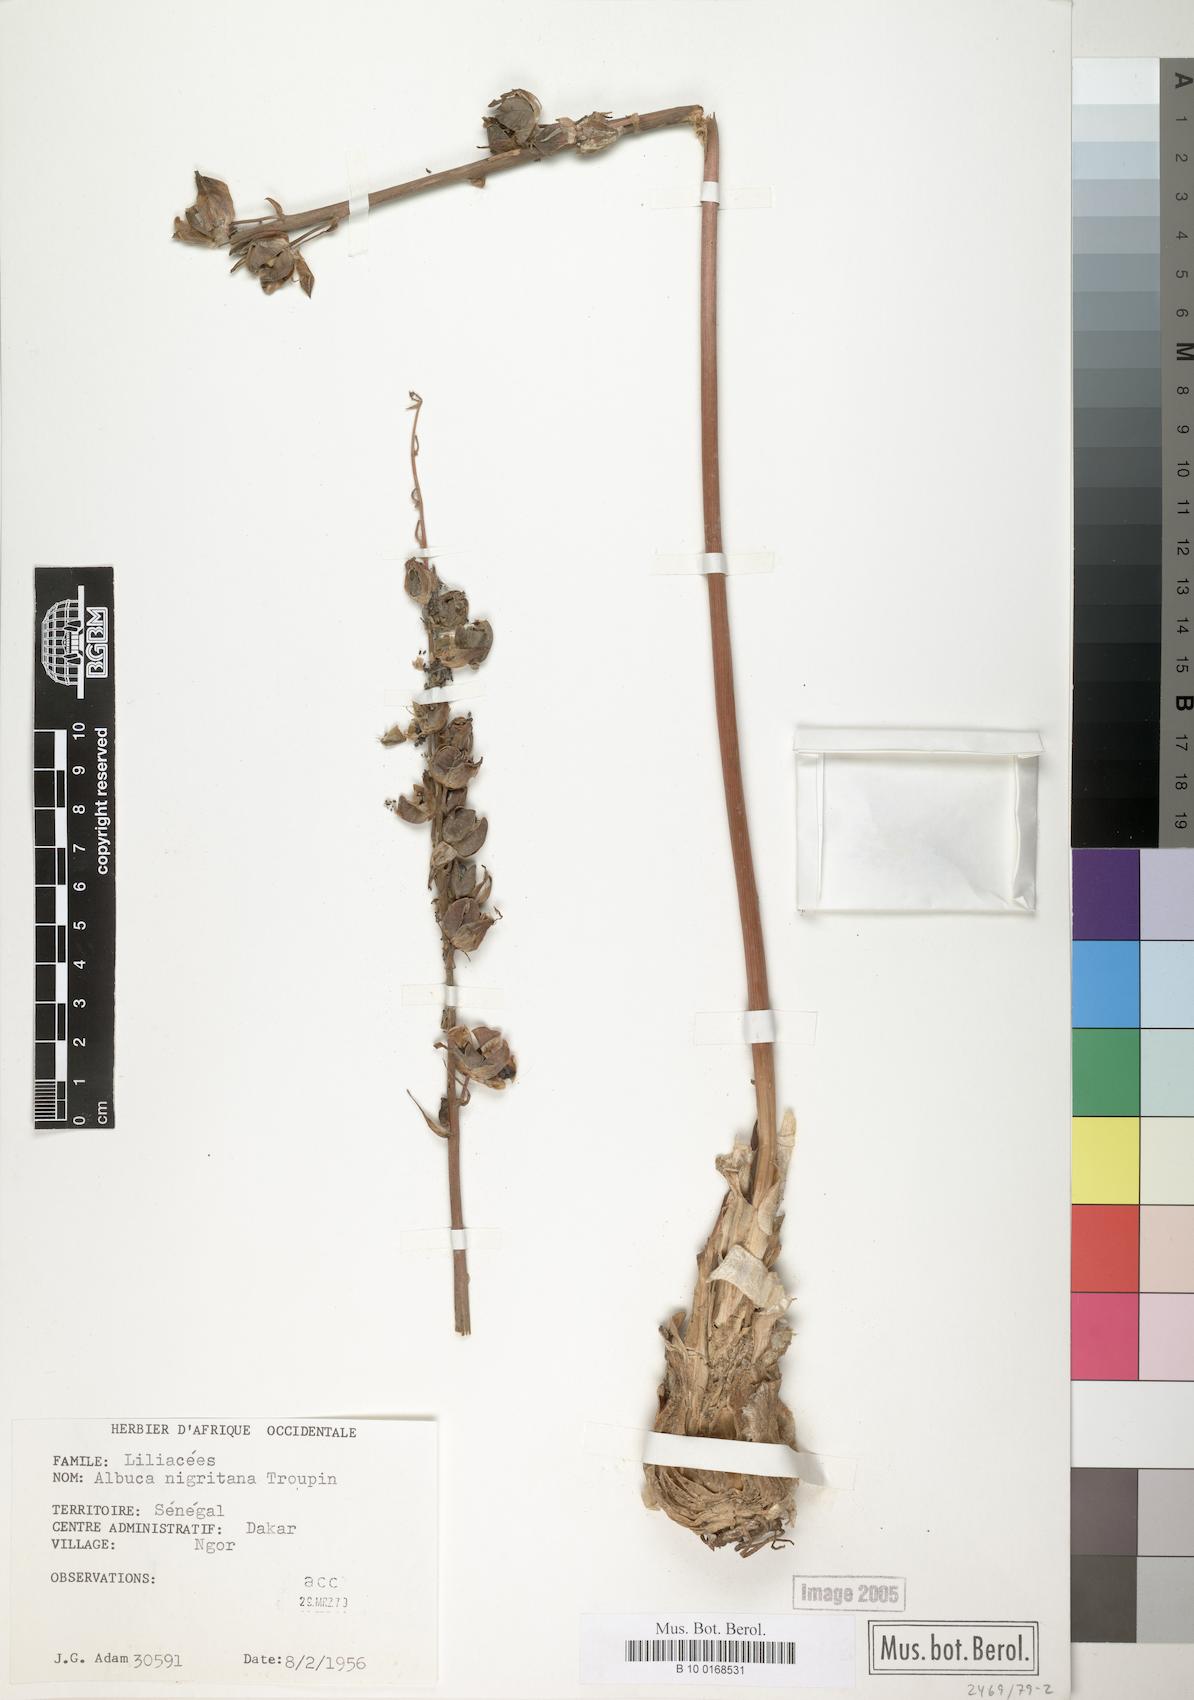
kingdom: Plantae
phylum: Tracheophyta
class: Liliopsida
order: Asparagales
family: Asparagaceae
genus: Albuca
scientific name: Albuca nigritana
